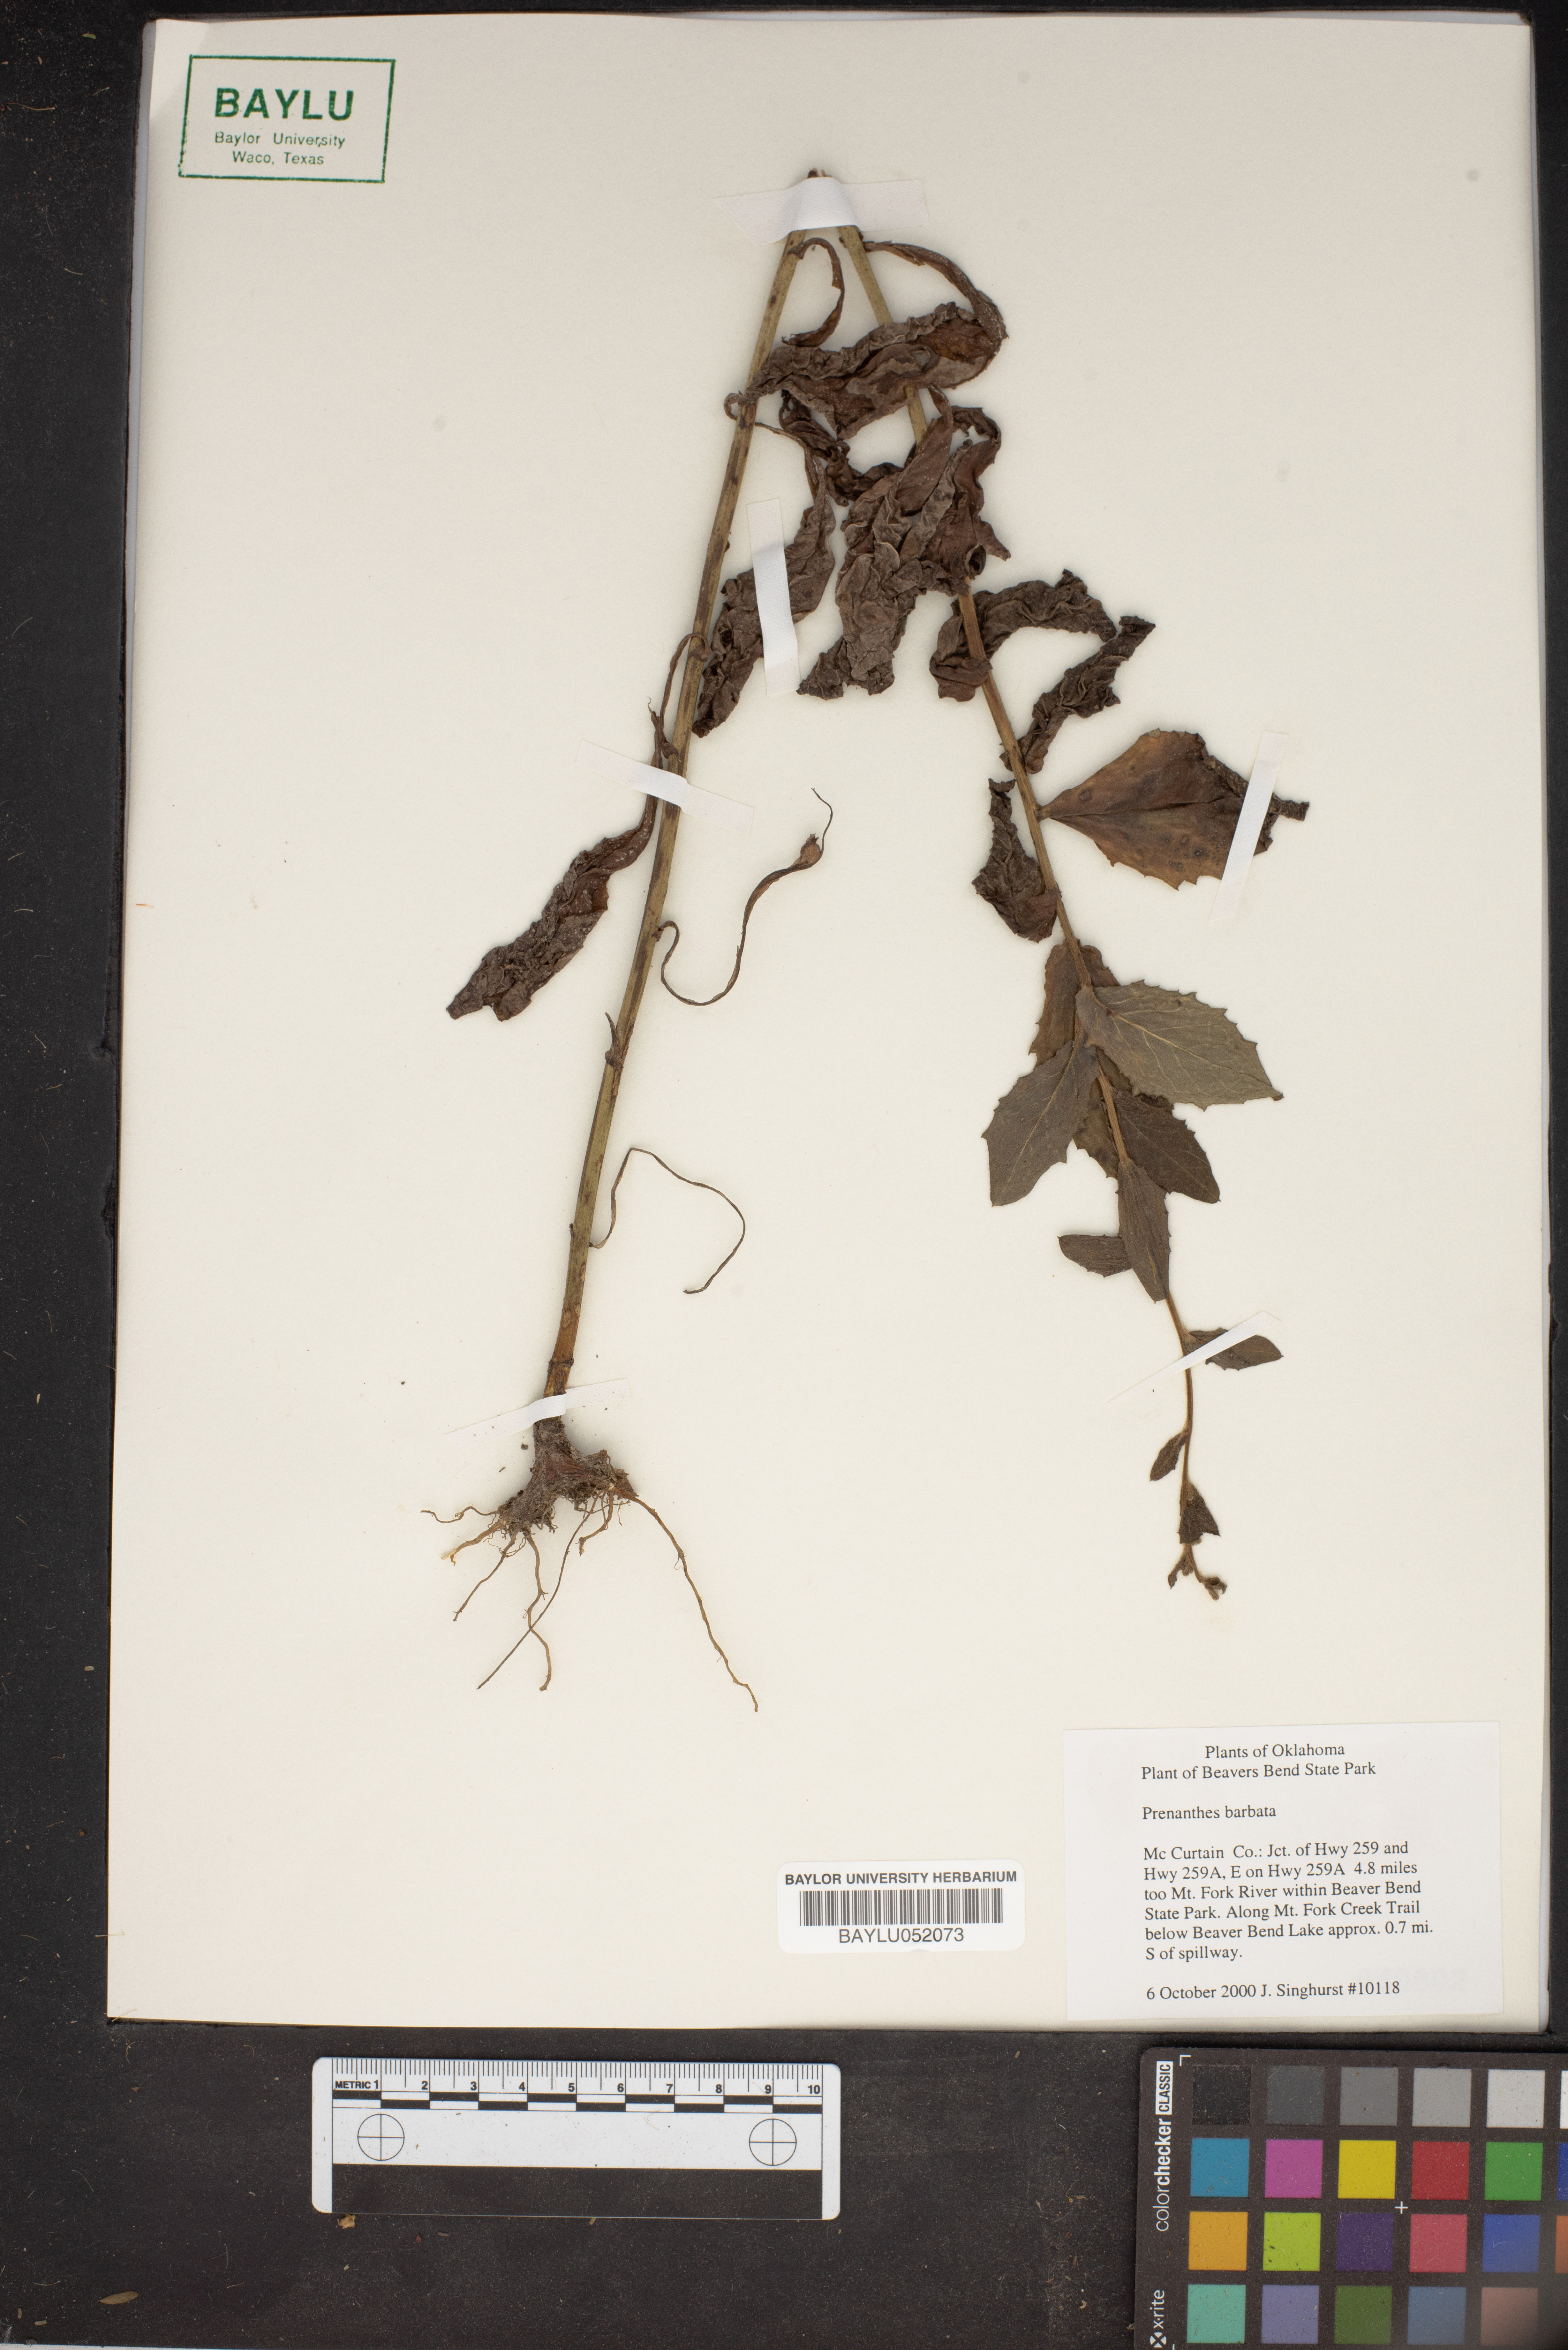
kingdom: Plantae
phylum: Tracheophyta
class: Magnoliopsida
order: Asterales
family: Asteraceae
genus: Nabalus
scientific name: Nabalus barbata
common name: Barbed rattlesnakeroot
